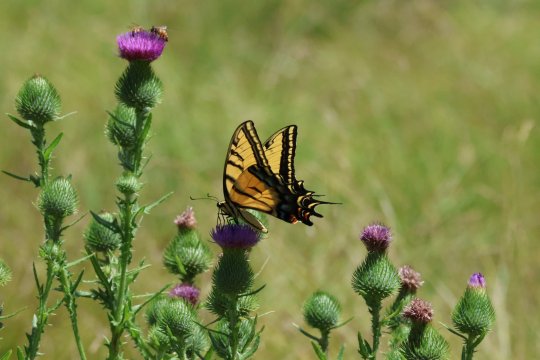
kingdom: Animalia
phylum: Arthropoda
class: Insecta
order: Lepidoptera
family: Papilionidae
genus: Papilio
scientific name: Papilio multicaudata
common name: Two-tailed Swallowtail
